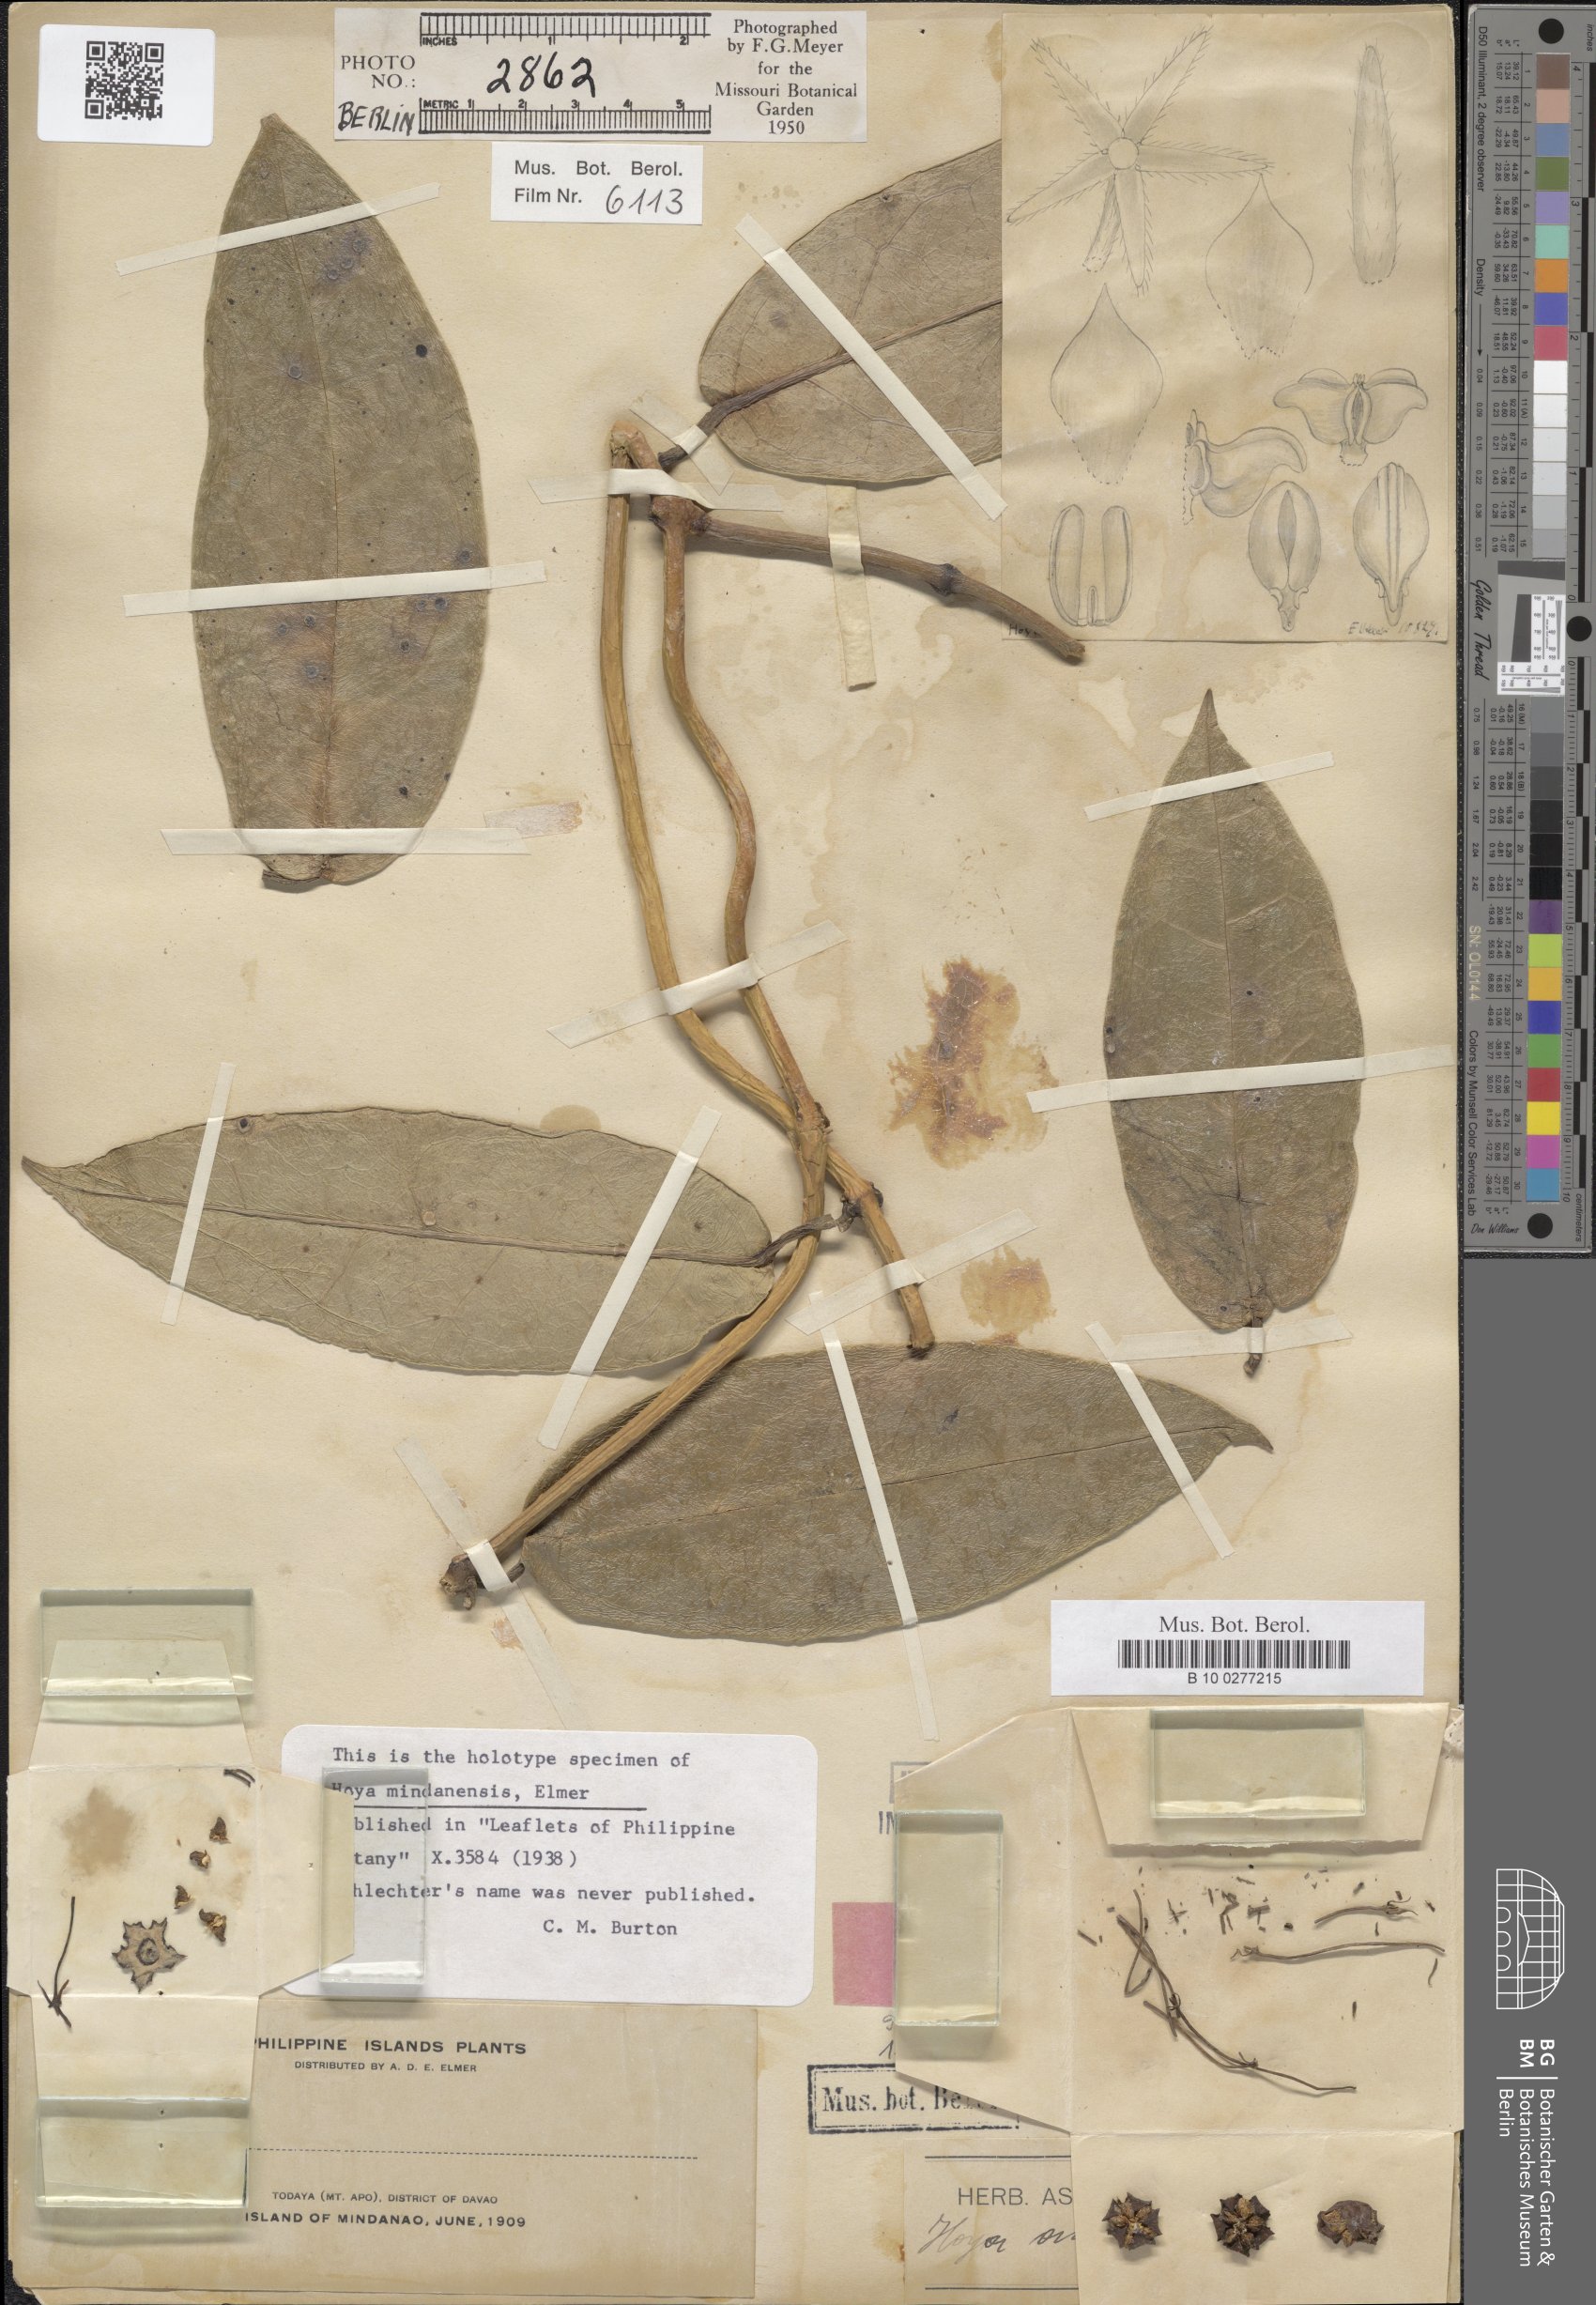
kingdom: Plantae
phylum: Tracheophyta
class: Magnoliopsida
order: Gentianales
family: Apocynaceae
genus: Hoya
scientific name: Hoya coriacea
